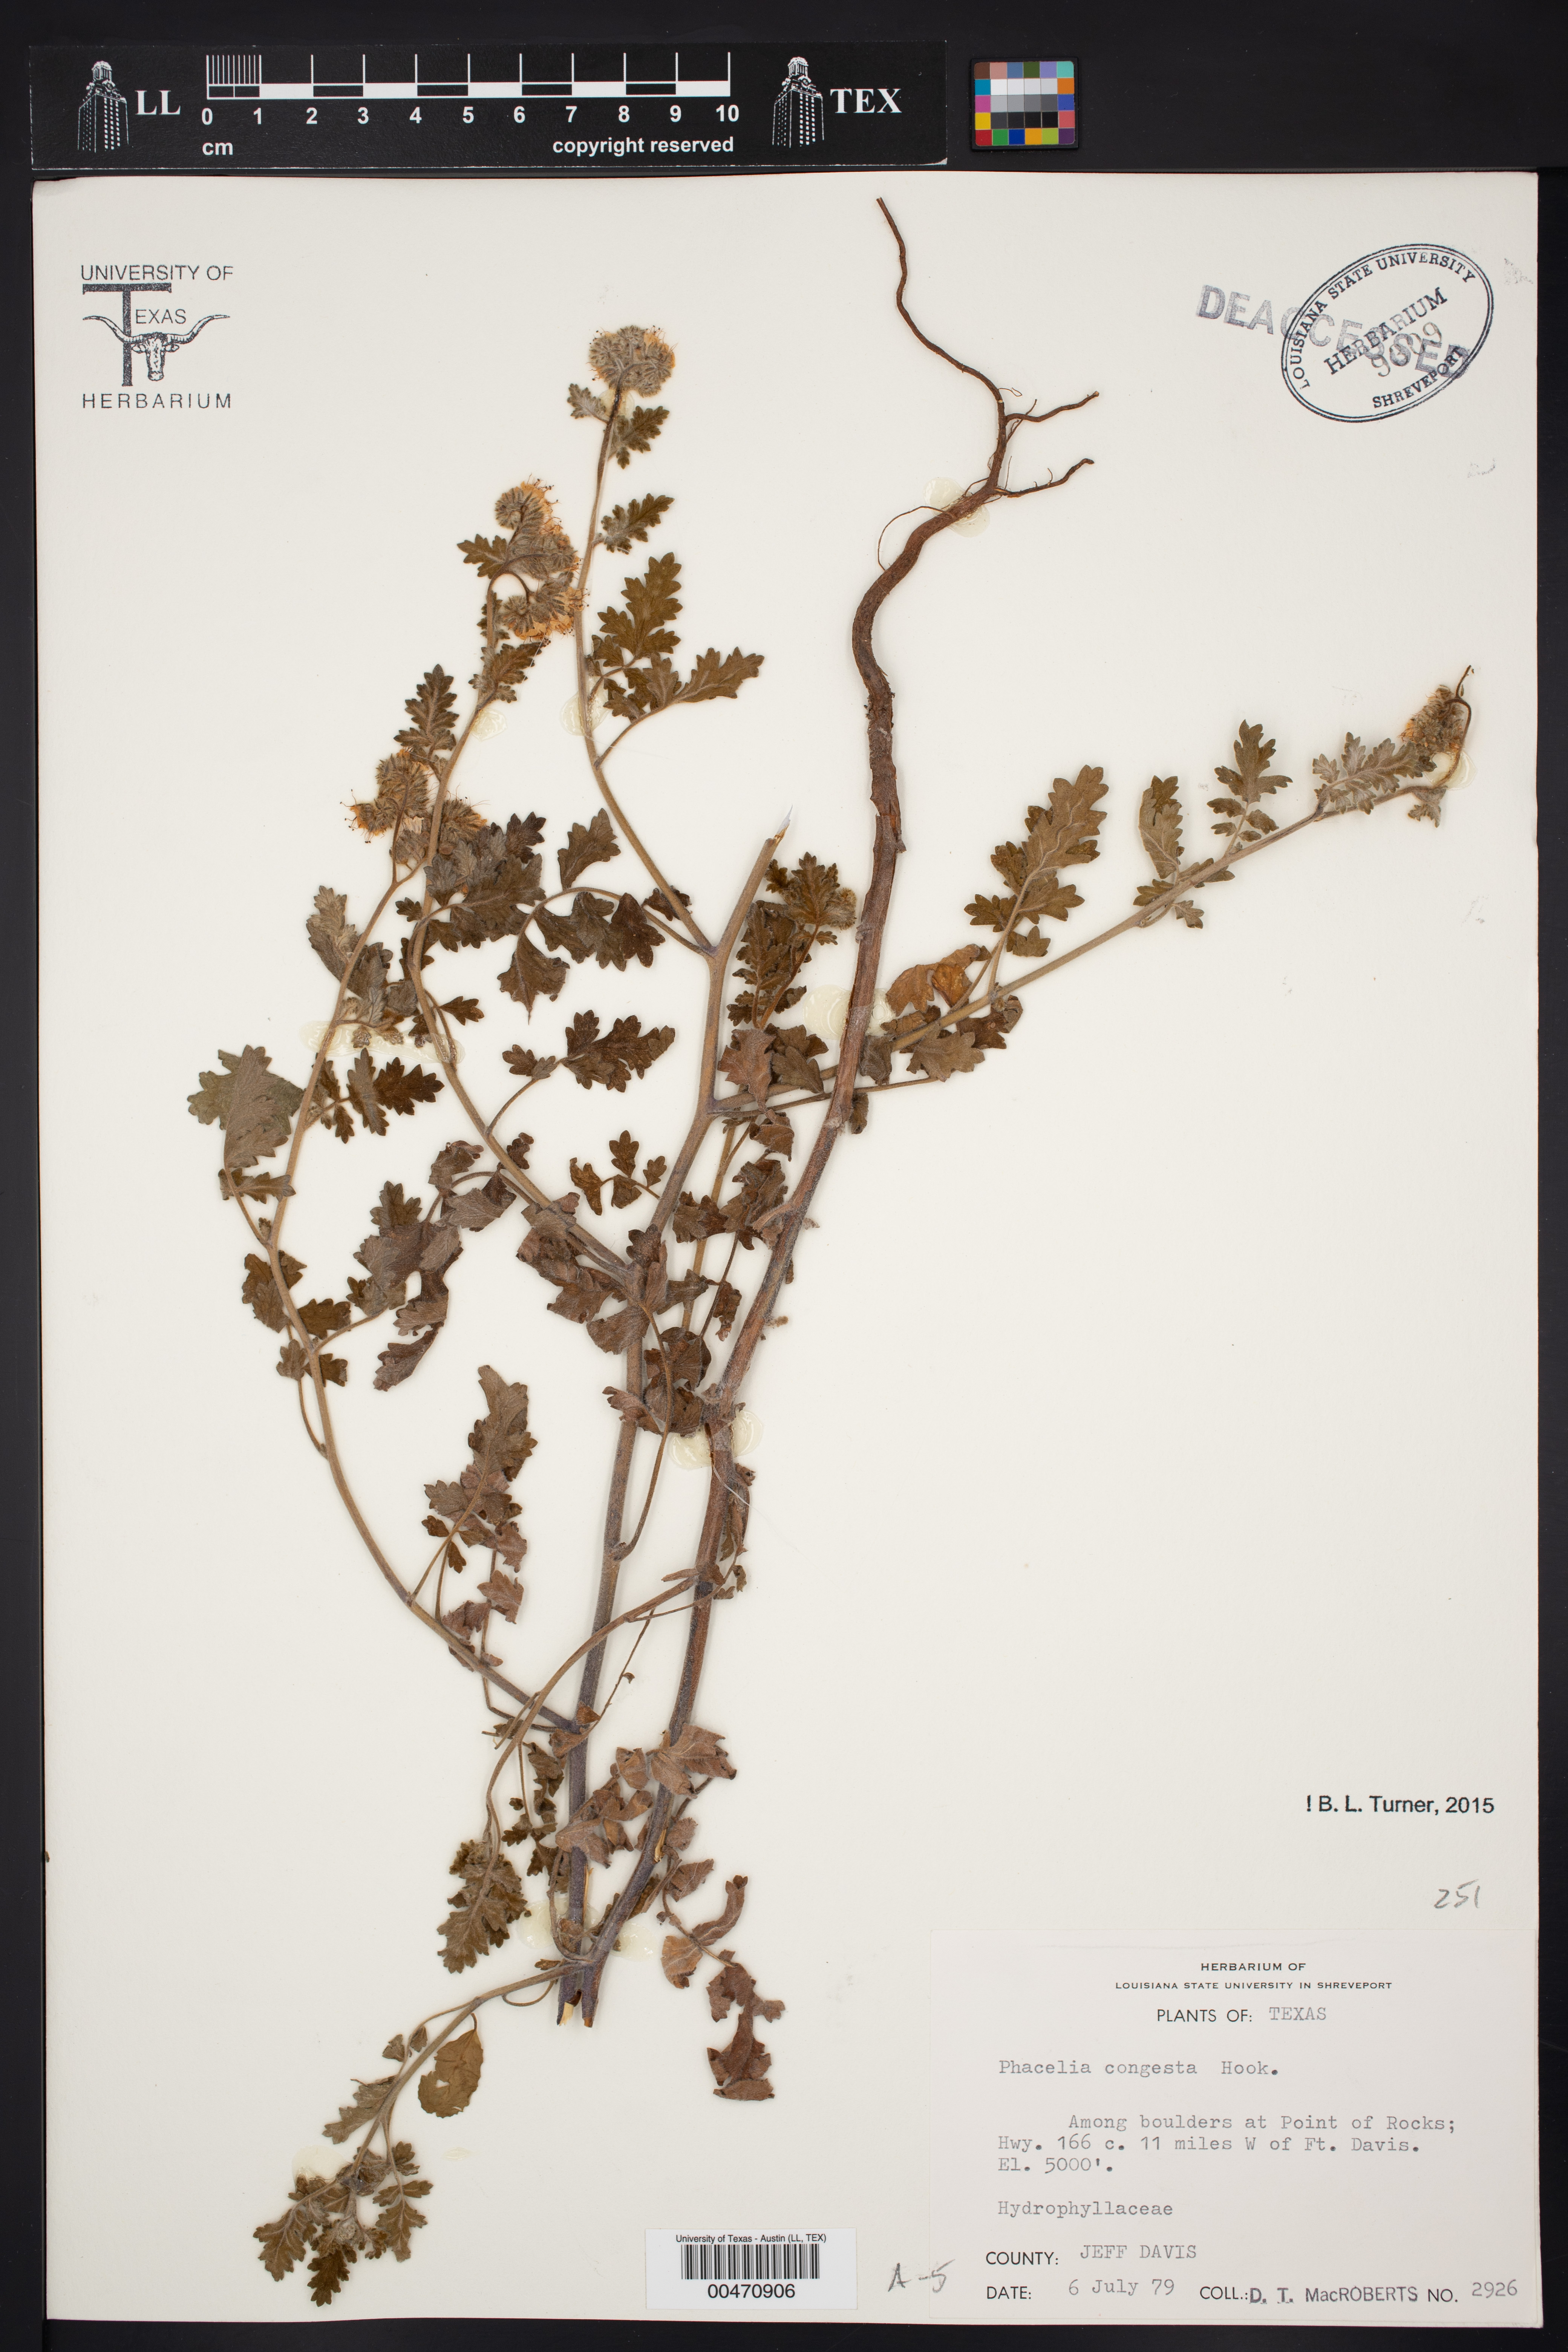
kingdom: Plantae
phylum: Tracheophyta
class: Magnoliopsida
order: Boraginales
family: Hydrophyllaceae
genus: Phacelia
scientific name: Phacelia congesta
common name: Blue curls
